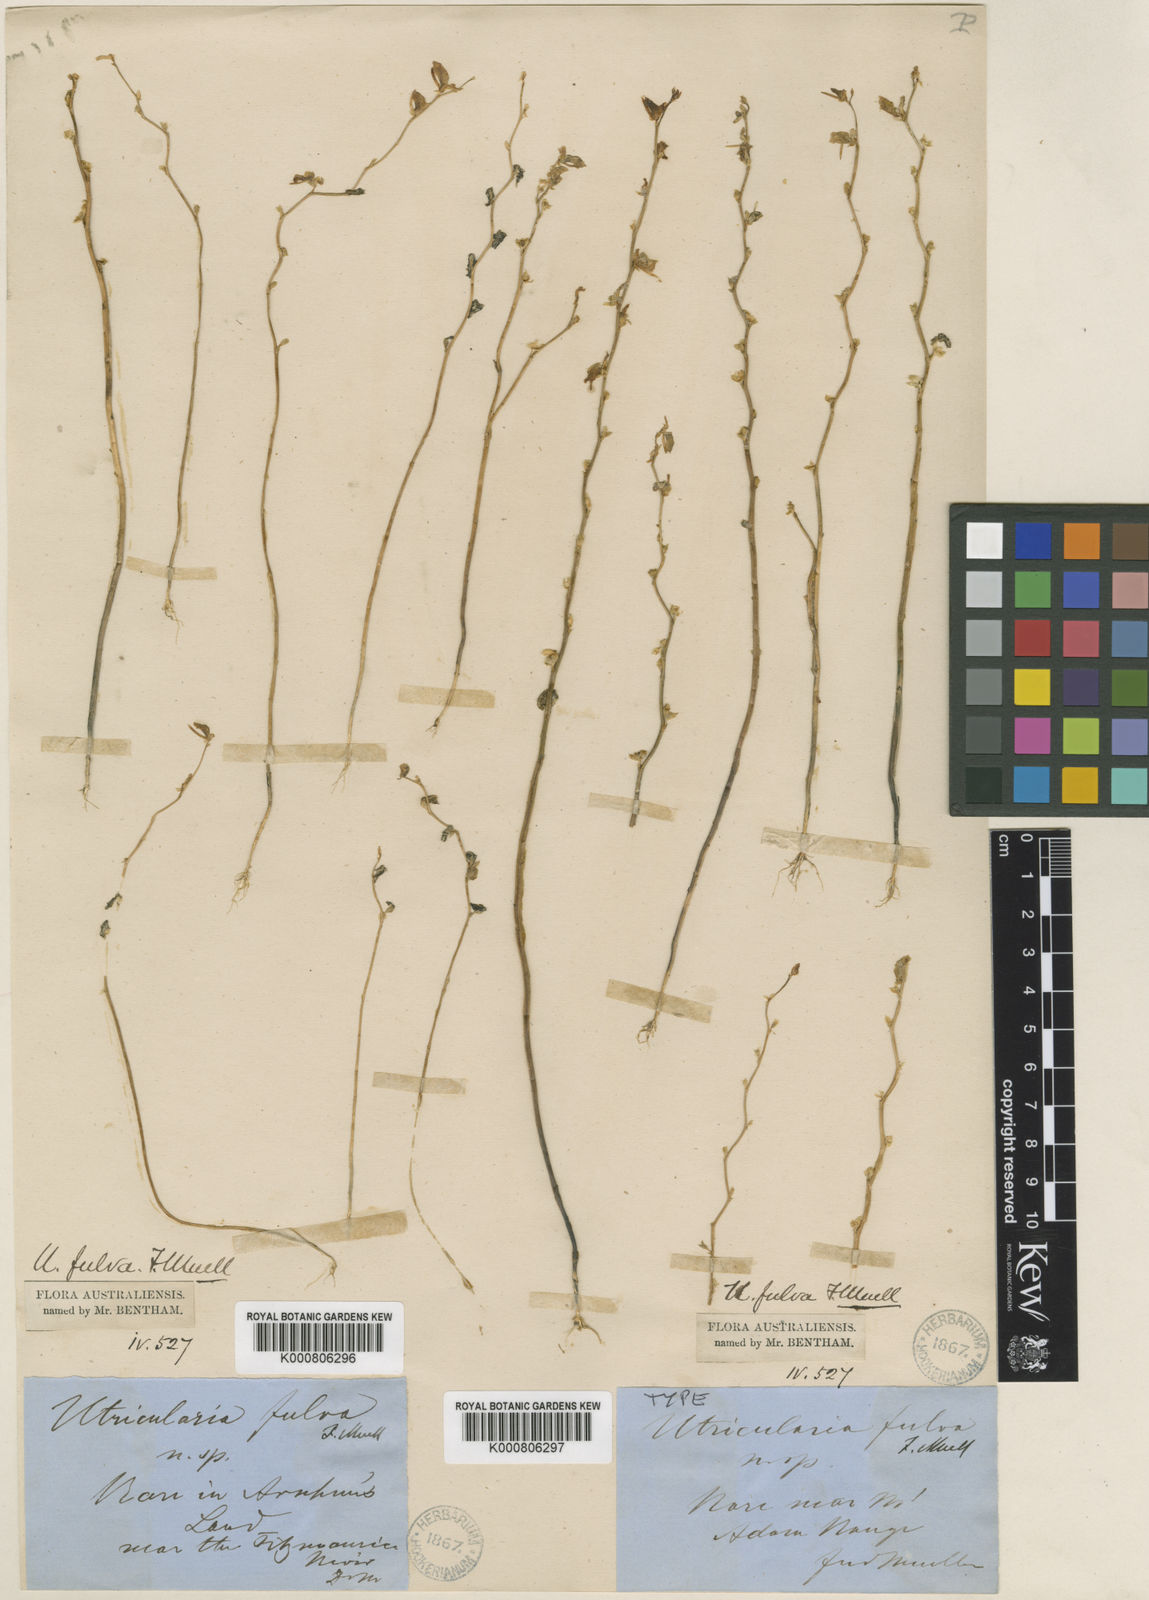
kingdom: Plantae
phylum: Tracheophyta
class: Magnoliopsida
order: Lamiales
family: Lentibulariaceae
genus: Utricularia
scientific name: Utricularia fulva
